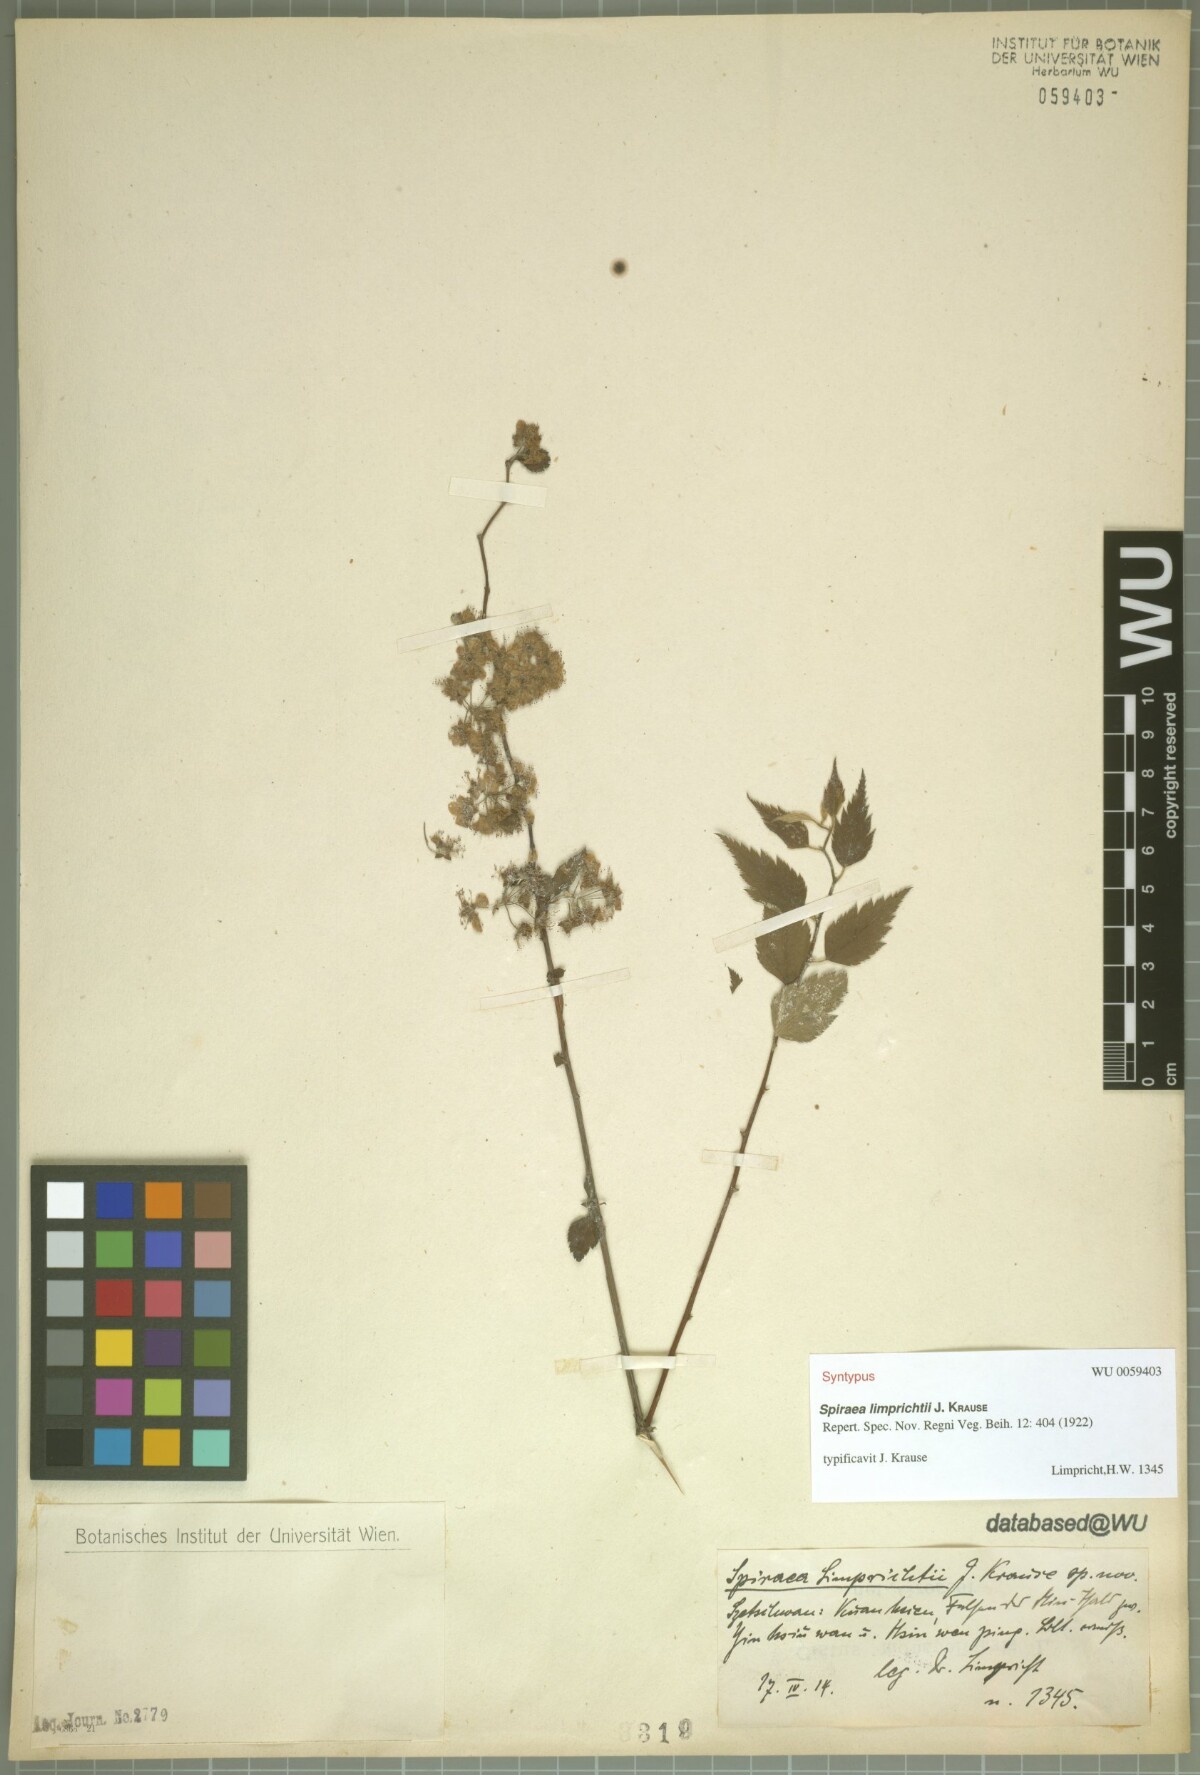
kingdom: Plantae
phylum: Tracheophyta
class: Magnoliopsida
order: Rosales
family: Rosaceae
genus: Spiraea
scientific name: Spiraea limprichtii
